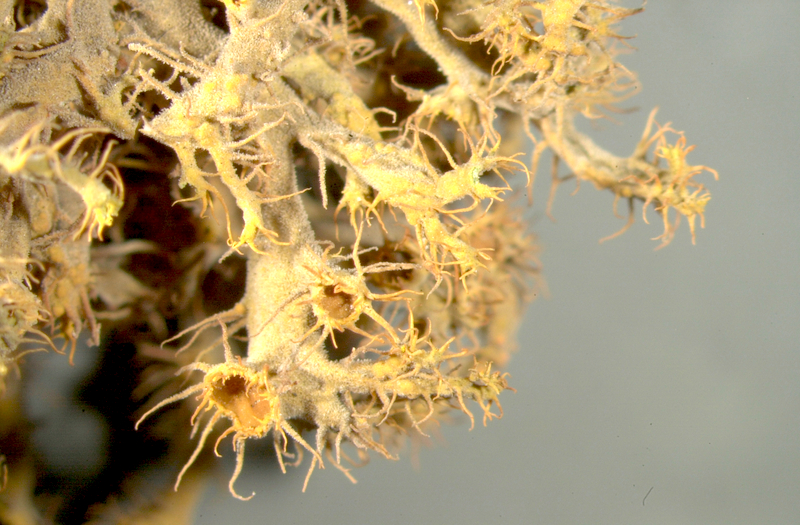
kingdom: Fungi
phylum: Ascomycota
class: Lecanoromycetes
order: Teloschistales
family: Teloschistaceae
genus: Teloschistes
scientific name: Teloschistes
